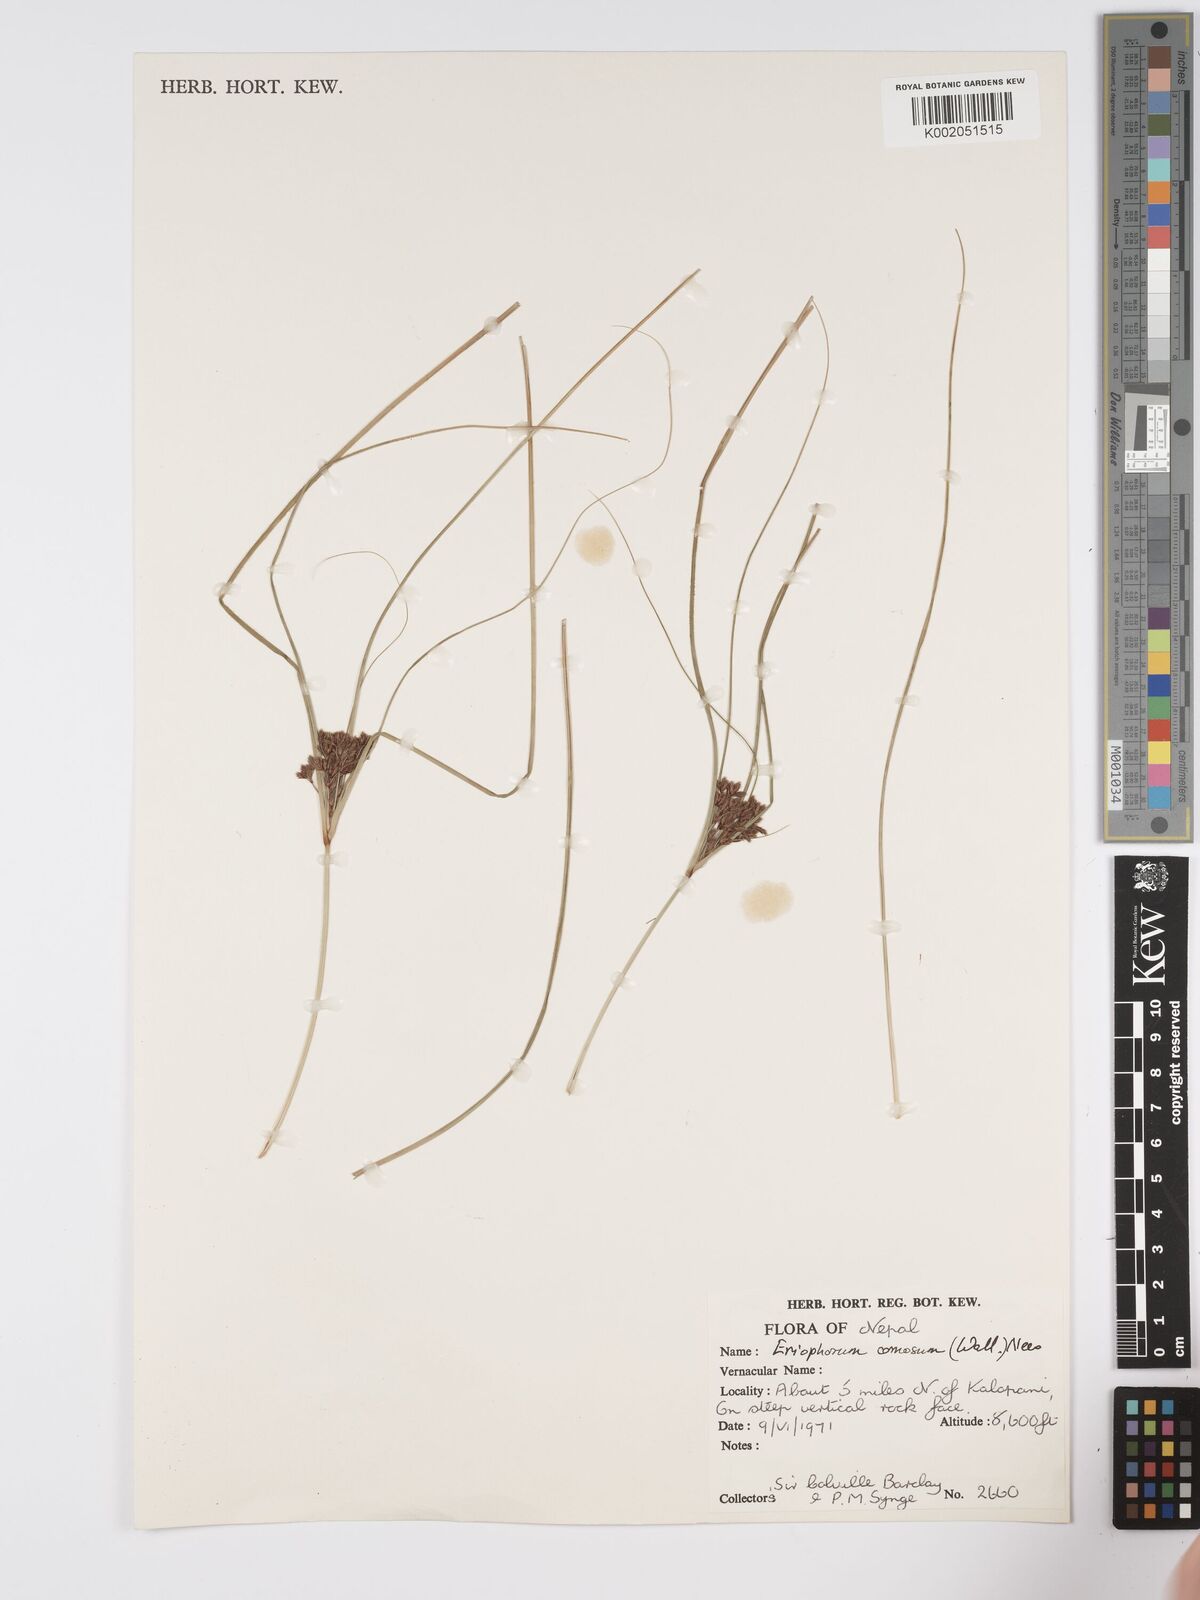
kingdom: Plantae
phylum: Tracheophyta
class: Liliopsida
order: Poales
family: Cyperaceae
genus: Erioscirpus
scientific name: Erioscirpus comosus
